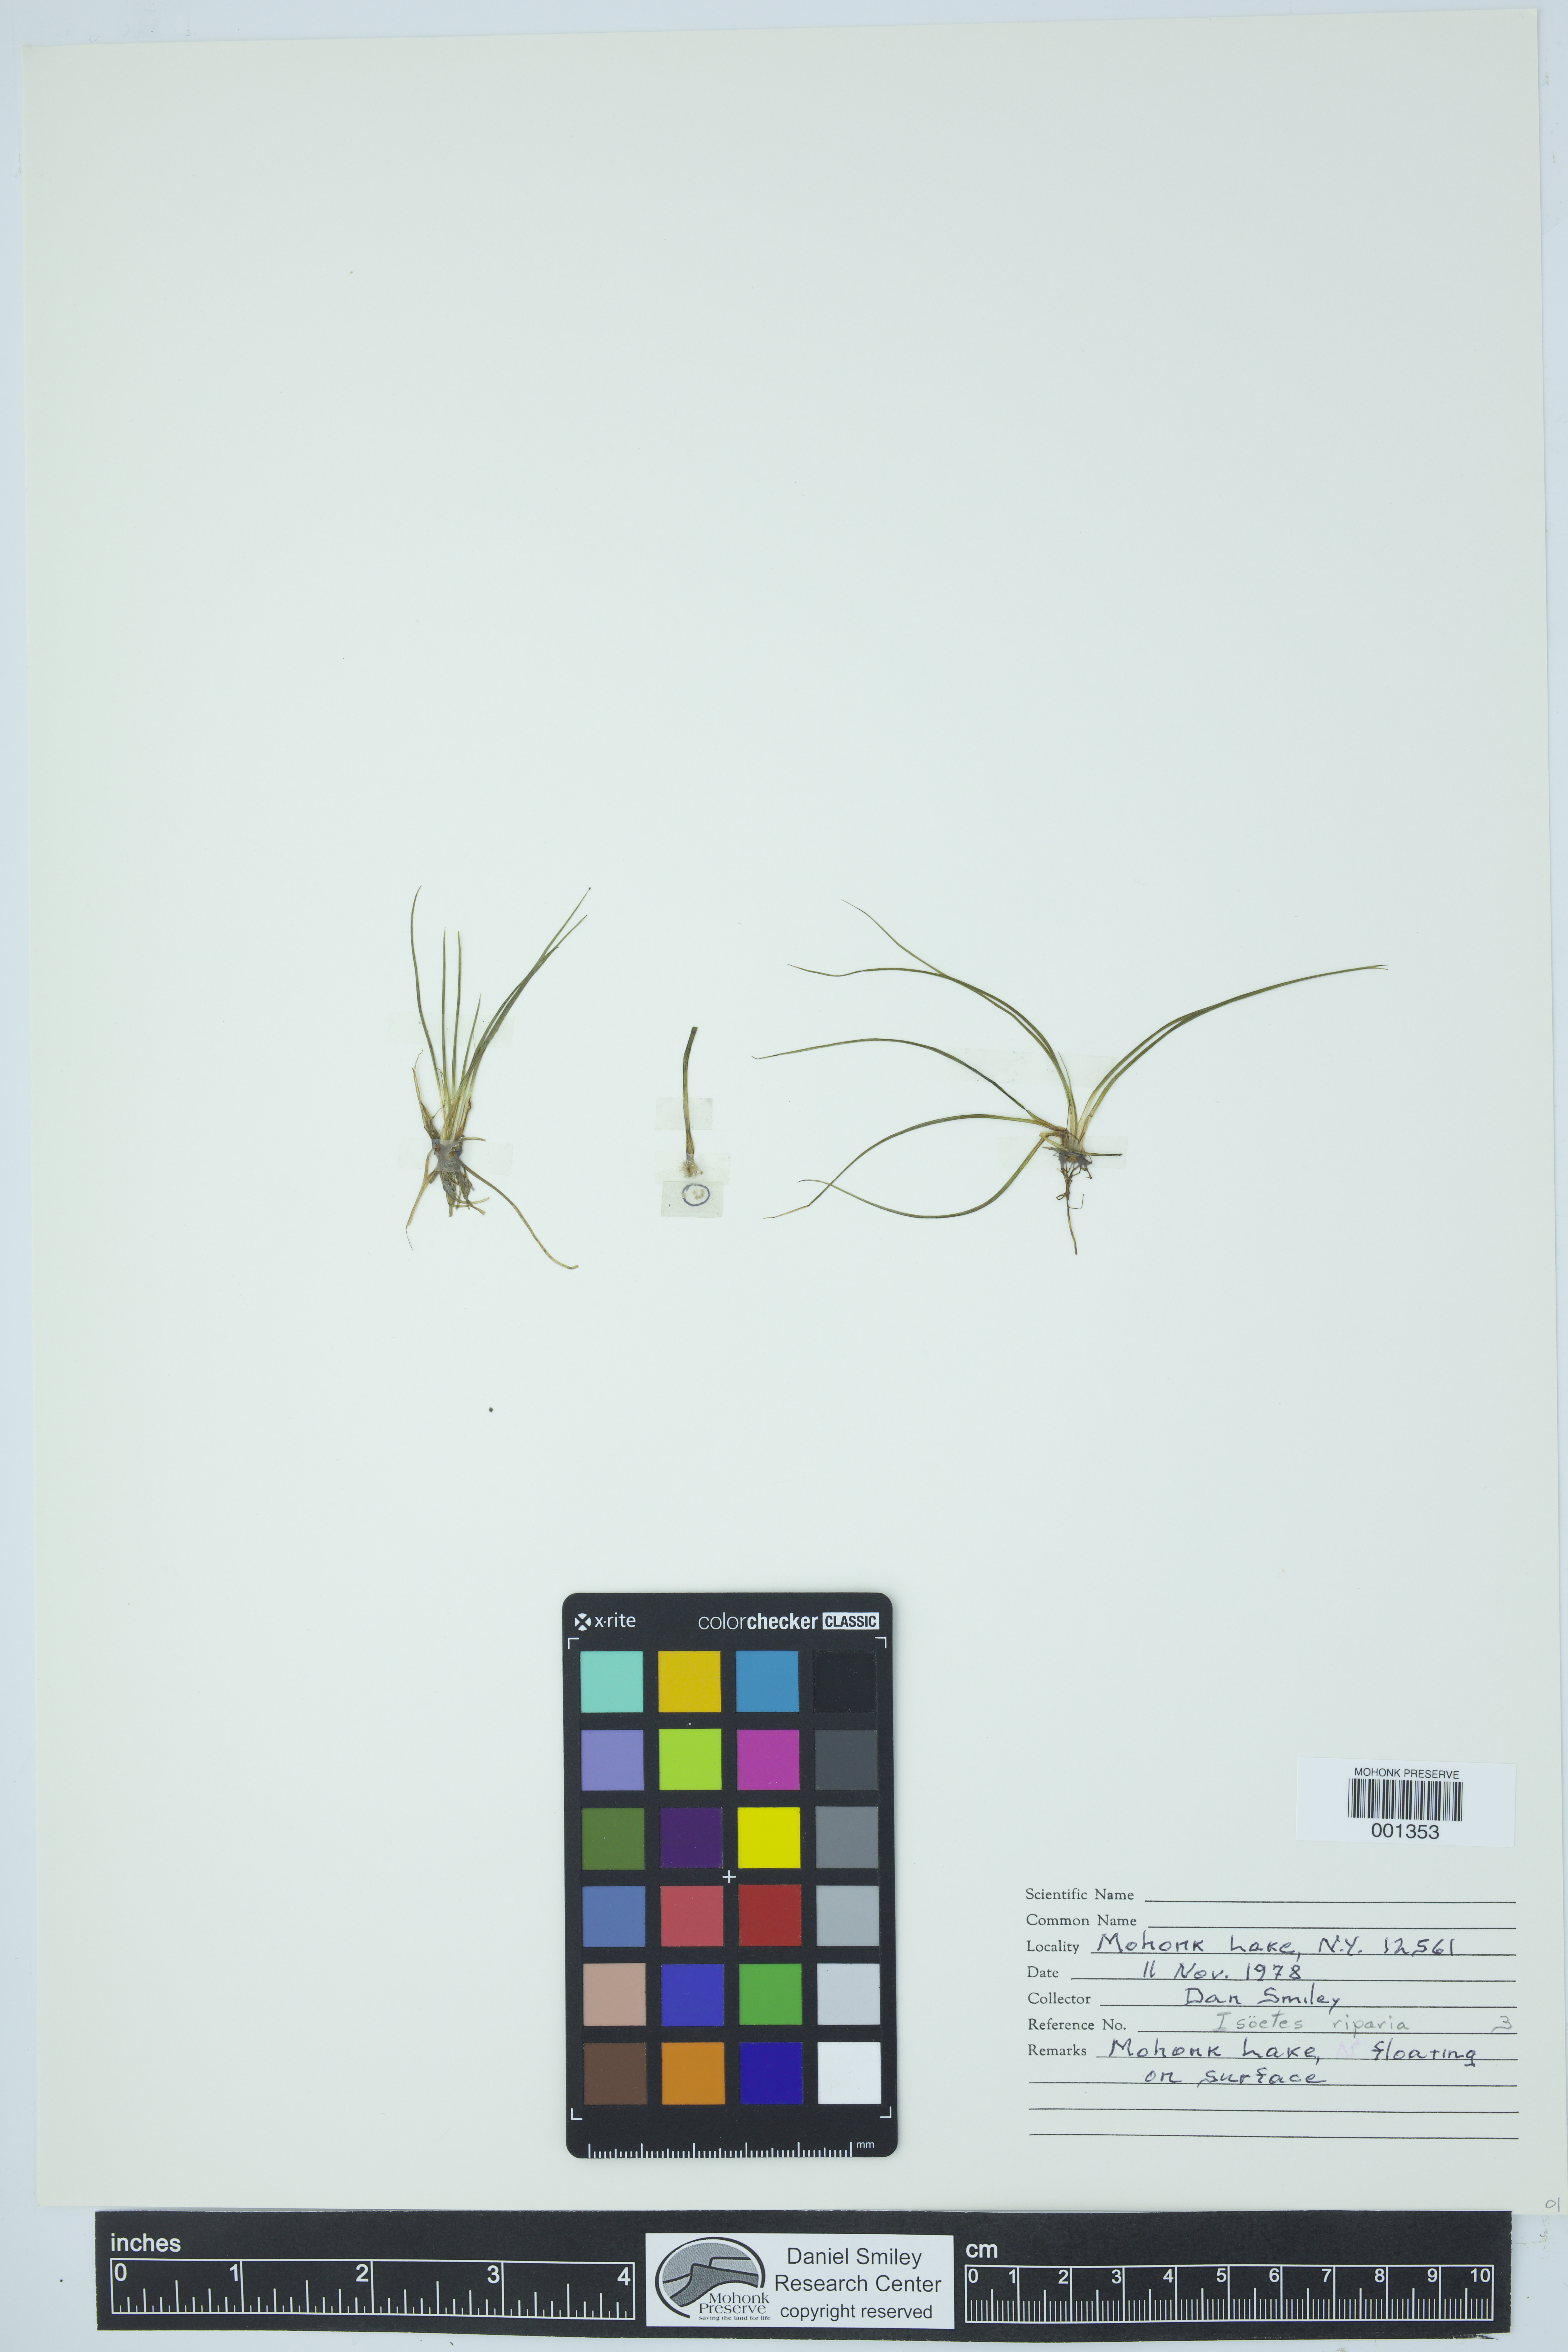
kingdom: Plantae
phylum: Tracheophyta
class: Lycopodiopsida
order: Isoetales
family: Isoetaceae
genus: Isoetes
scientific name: Isoetes riparia
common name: Riverbank quillwort
